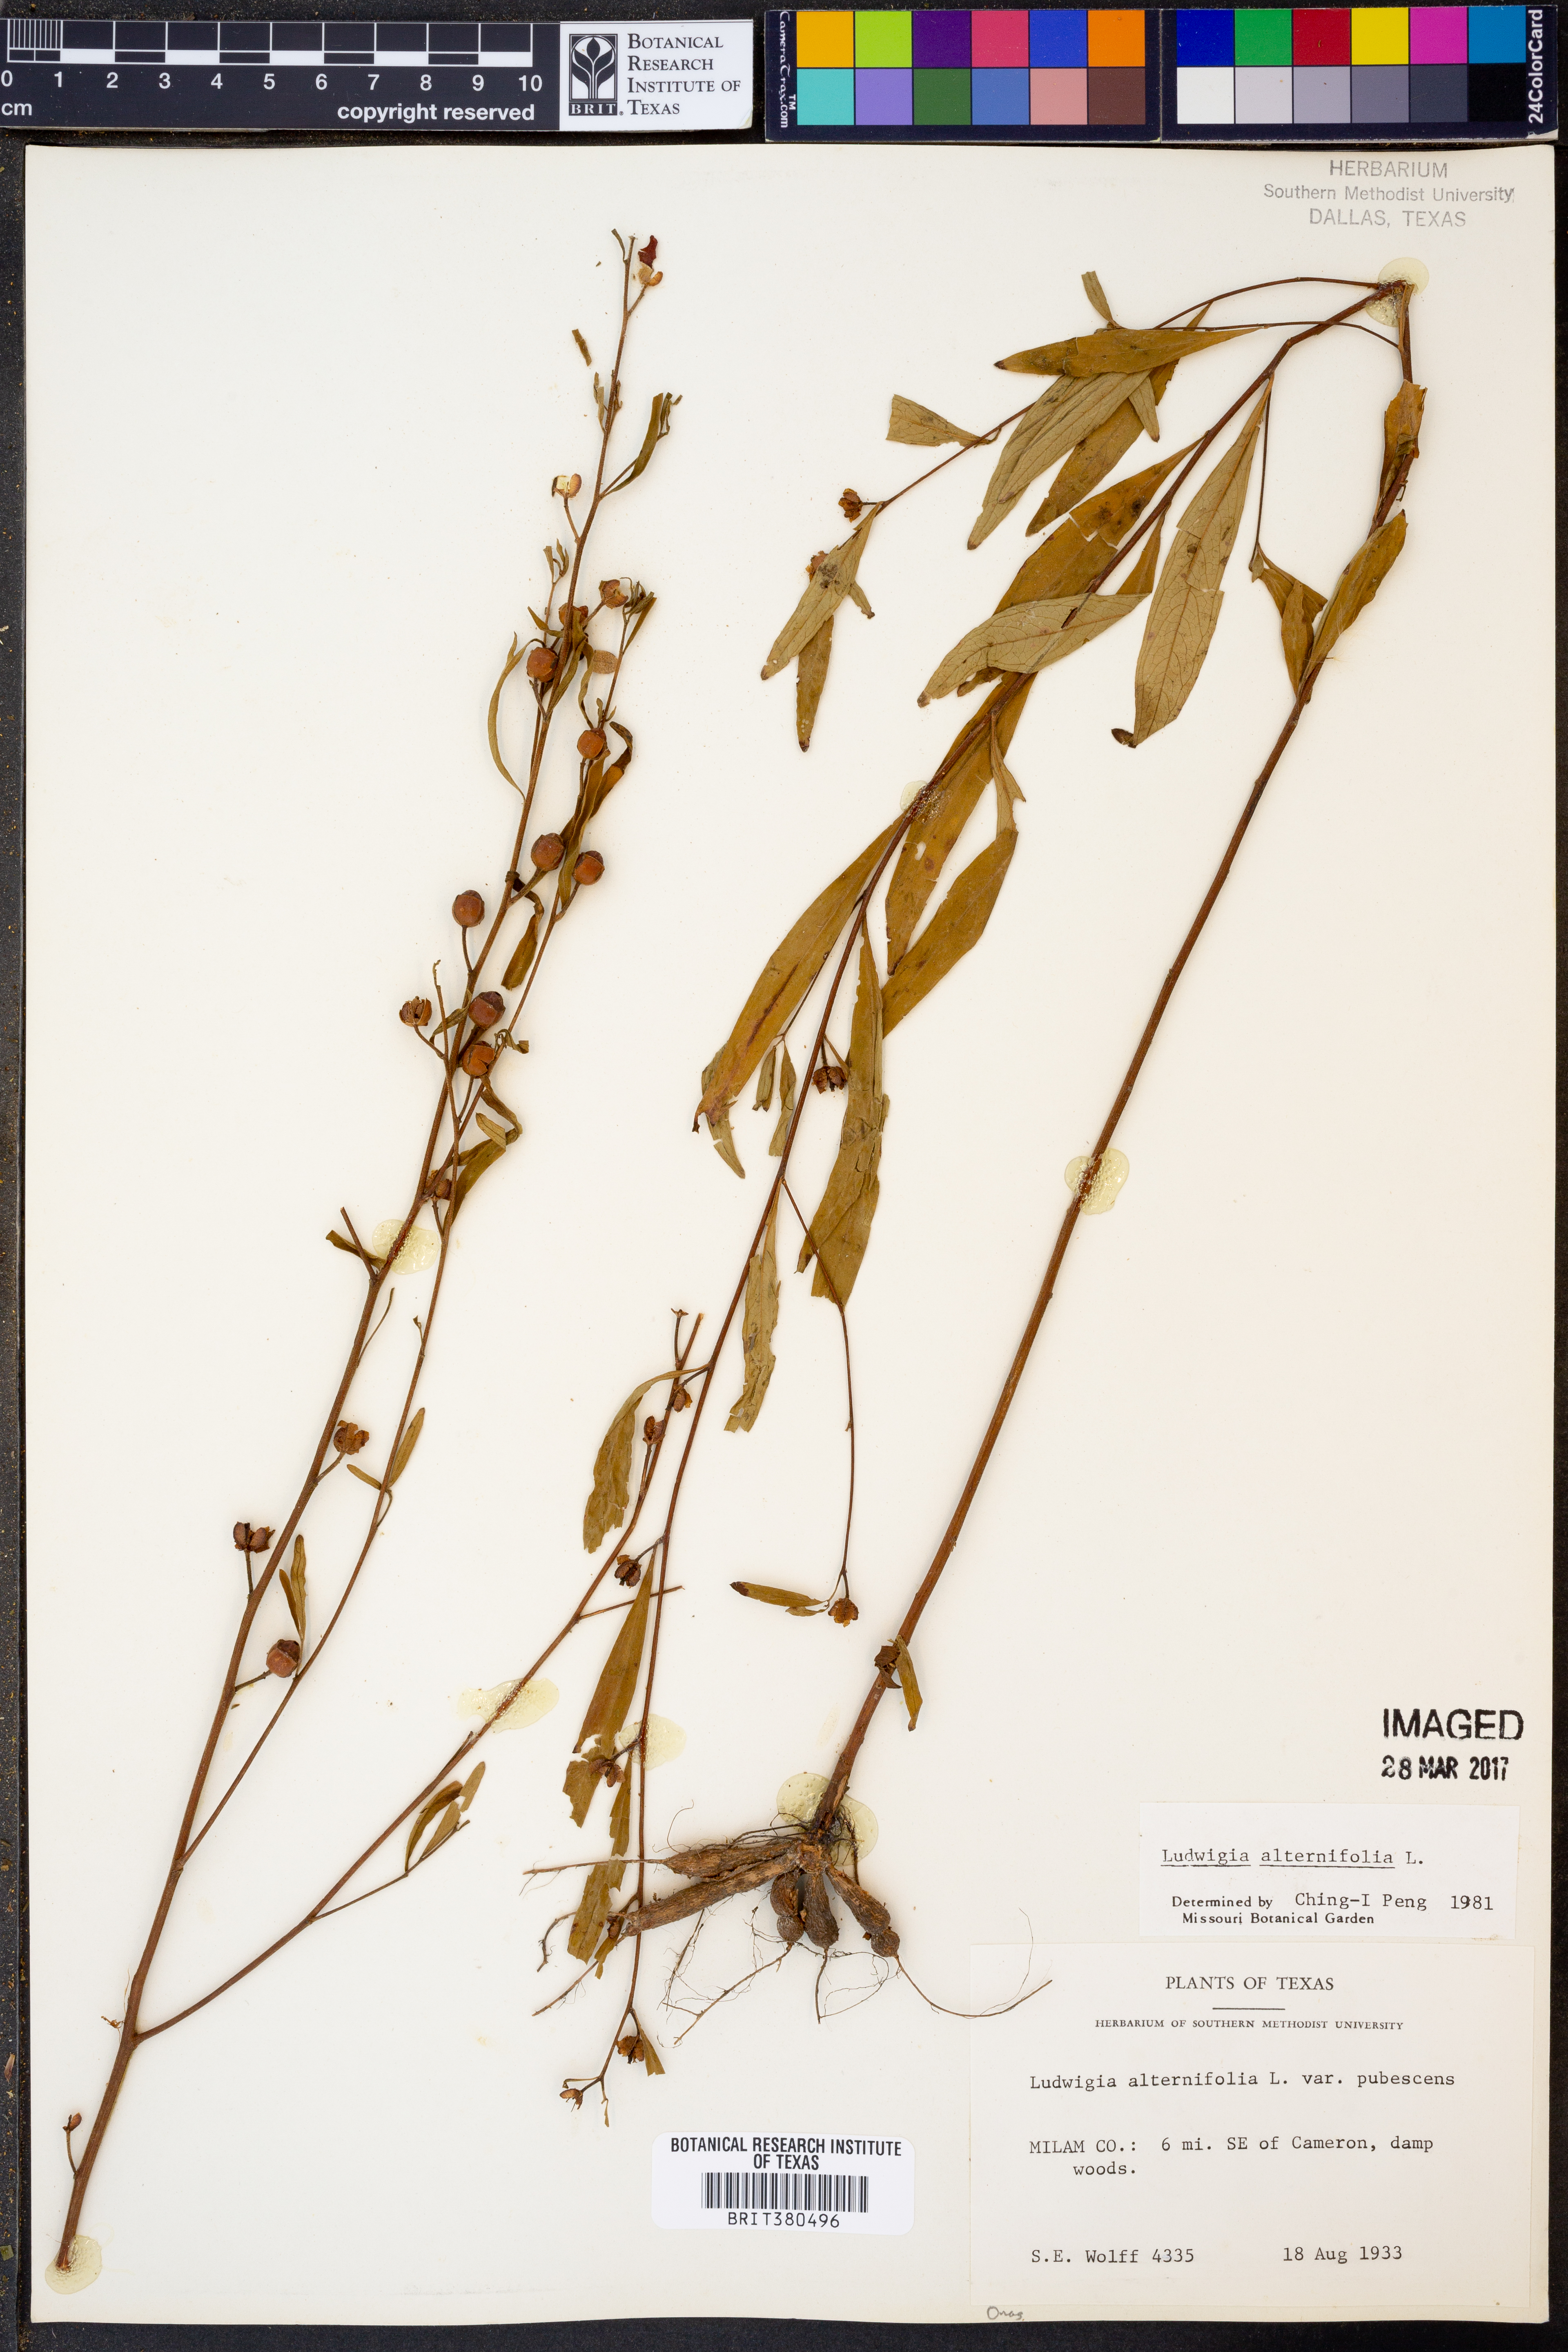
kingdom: Plantae
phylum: Tracheophyta
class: Magnoliopsida
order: Myrtales
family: Onagraceae
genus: Ludwigia
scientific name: Ludwigia alternifolia
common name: Rattlebox
